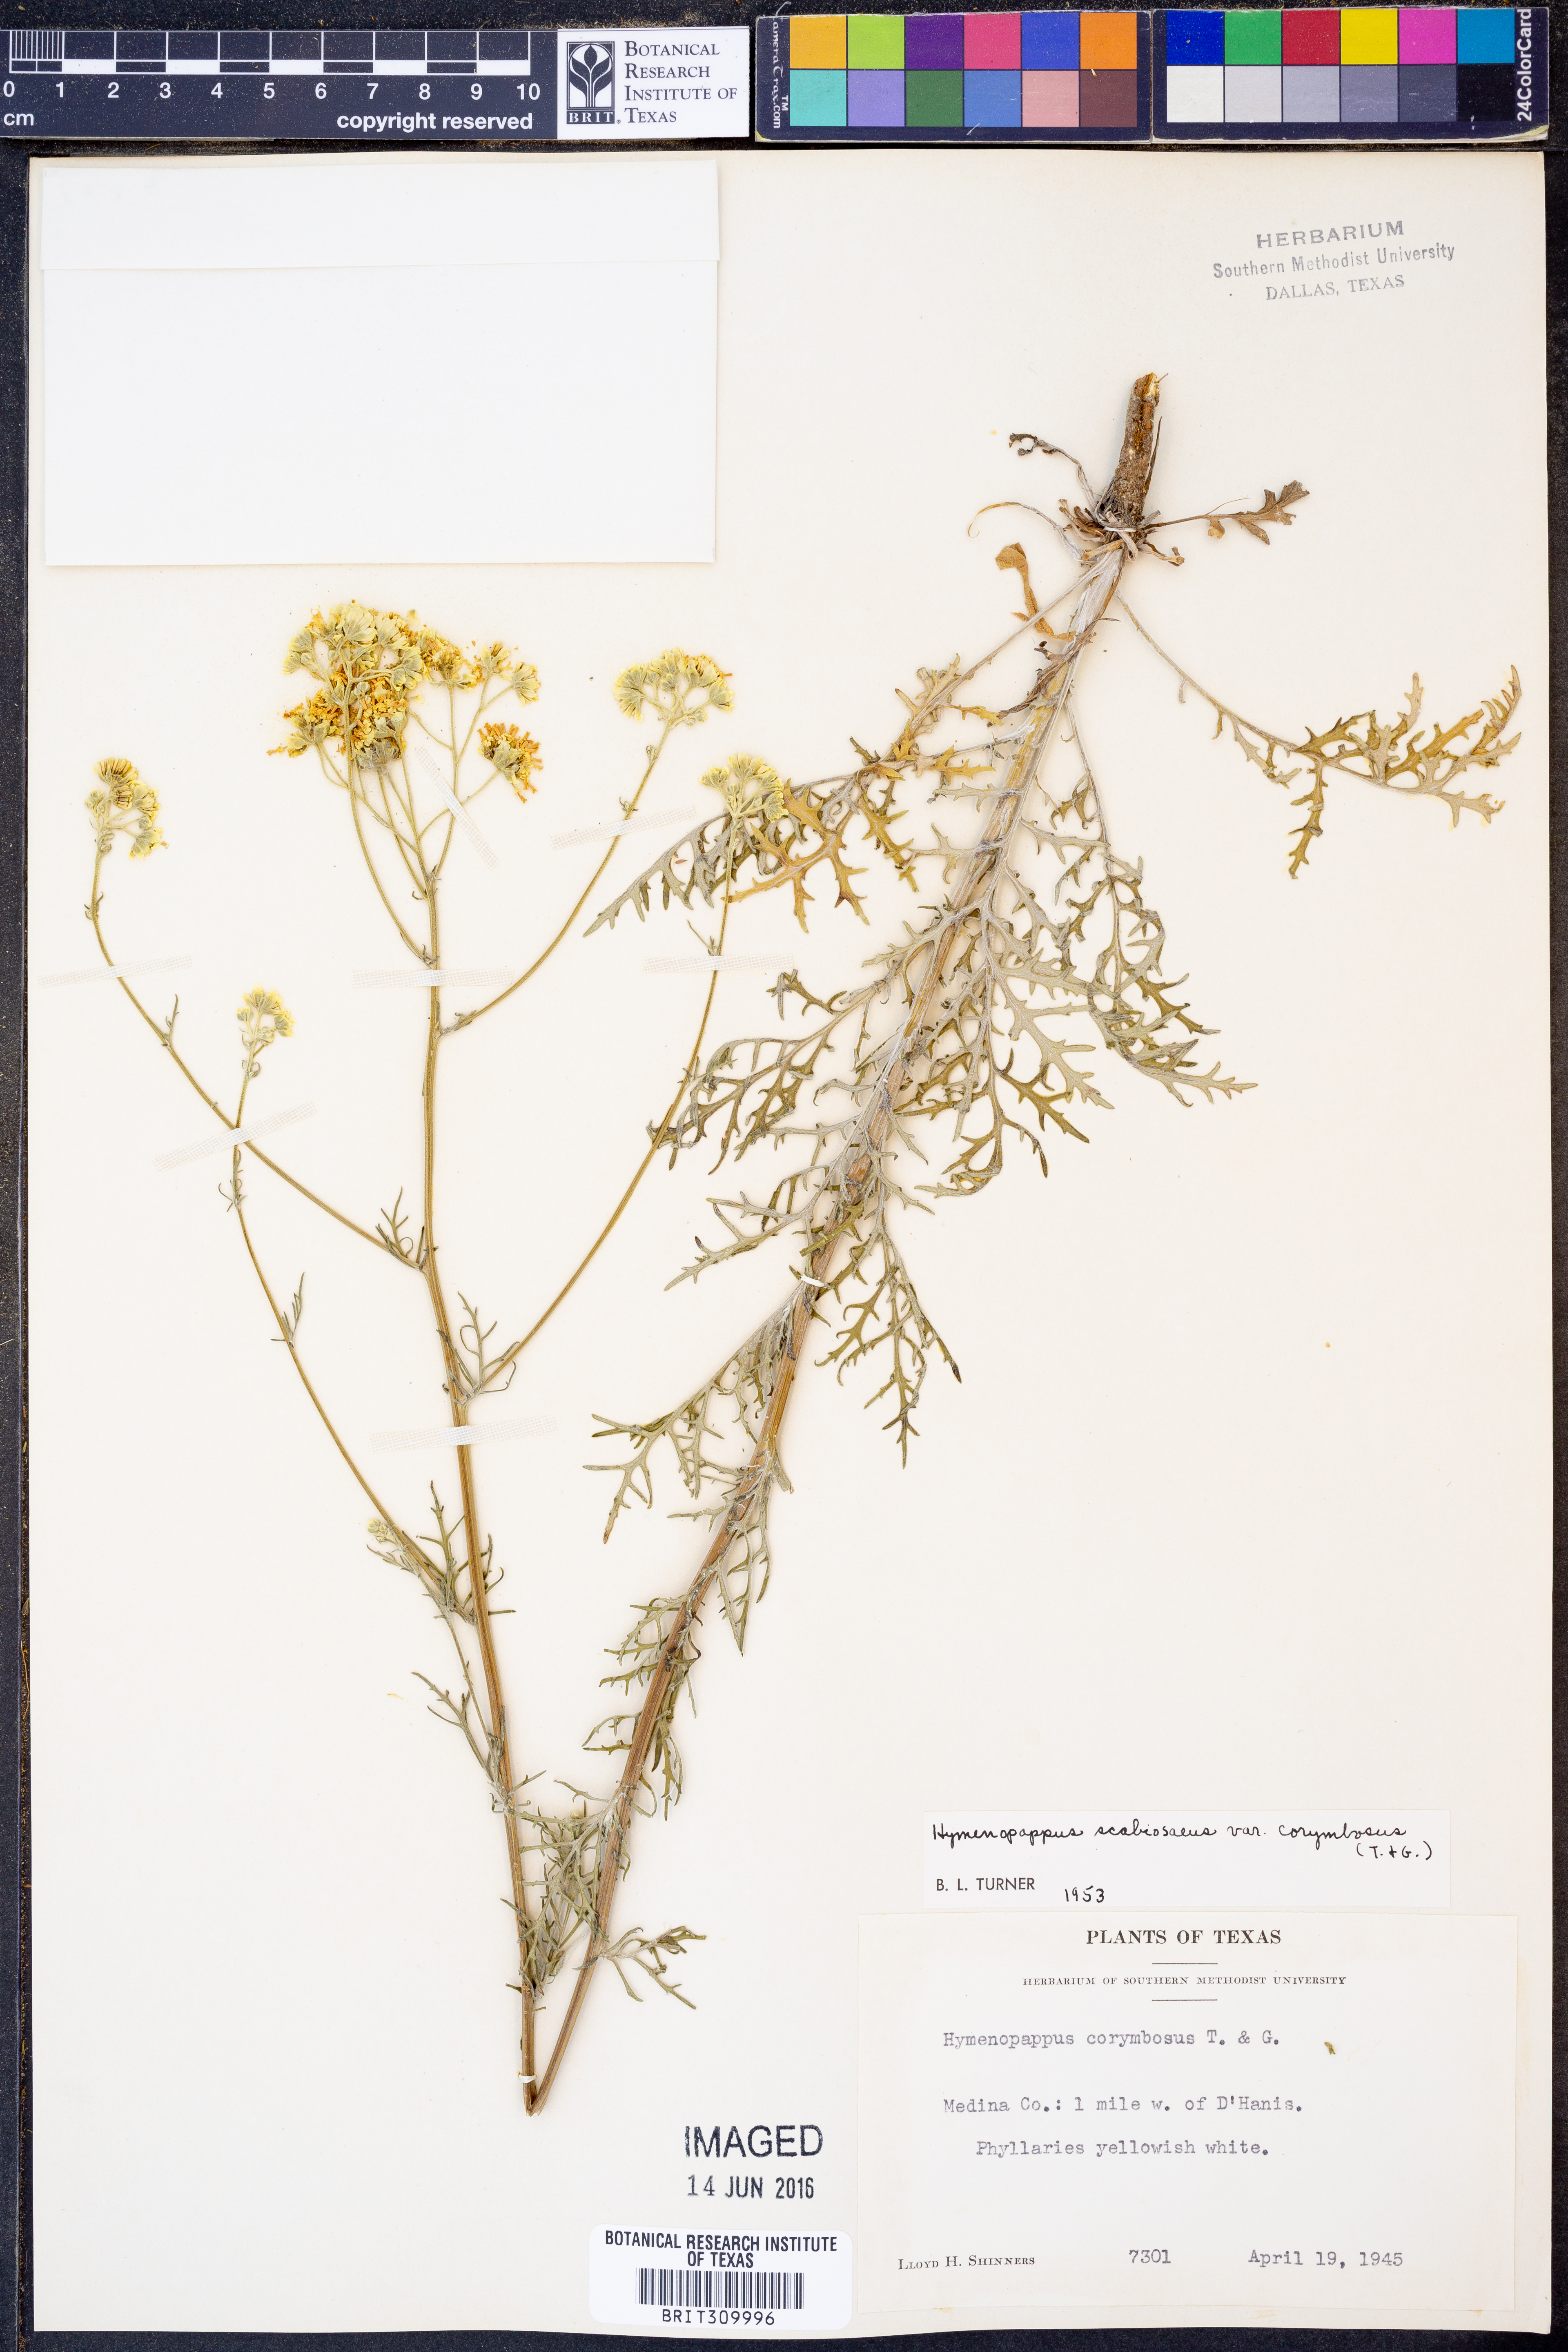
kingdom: Plantae
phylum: Tracheophyta
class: Magnoliopsida
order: Asterales
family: Asteraceae
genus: Hymenopappus
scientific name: Hymenopappus scabiosaeus
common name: Carolina woollywhite
